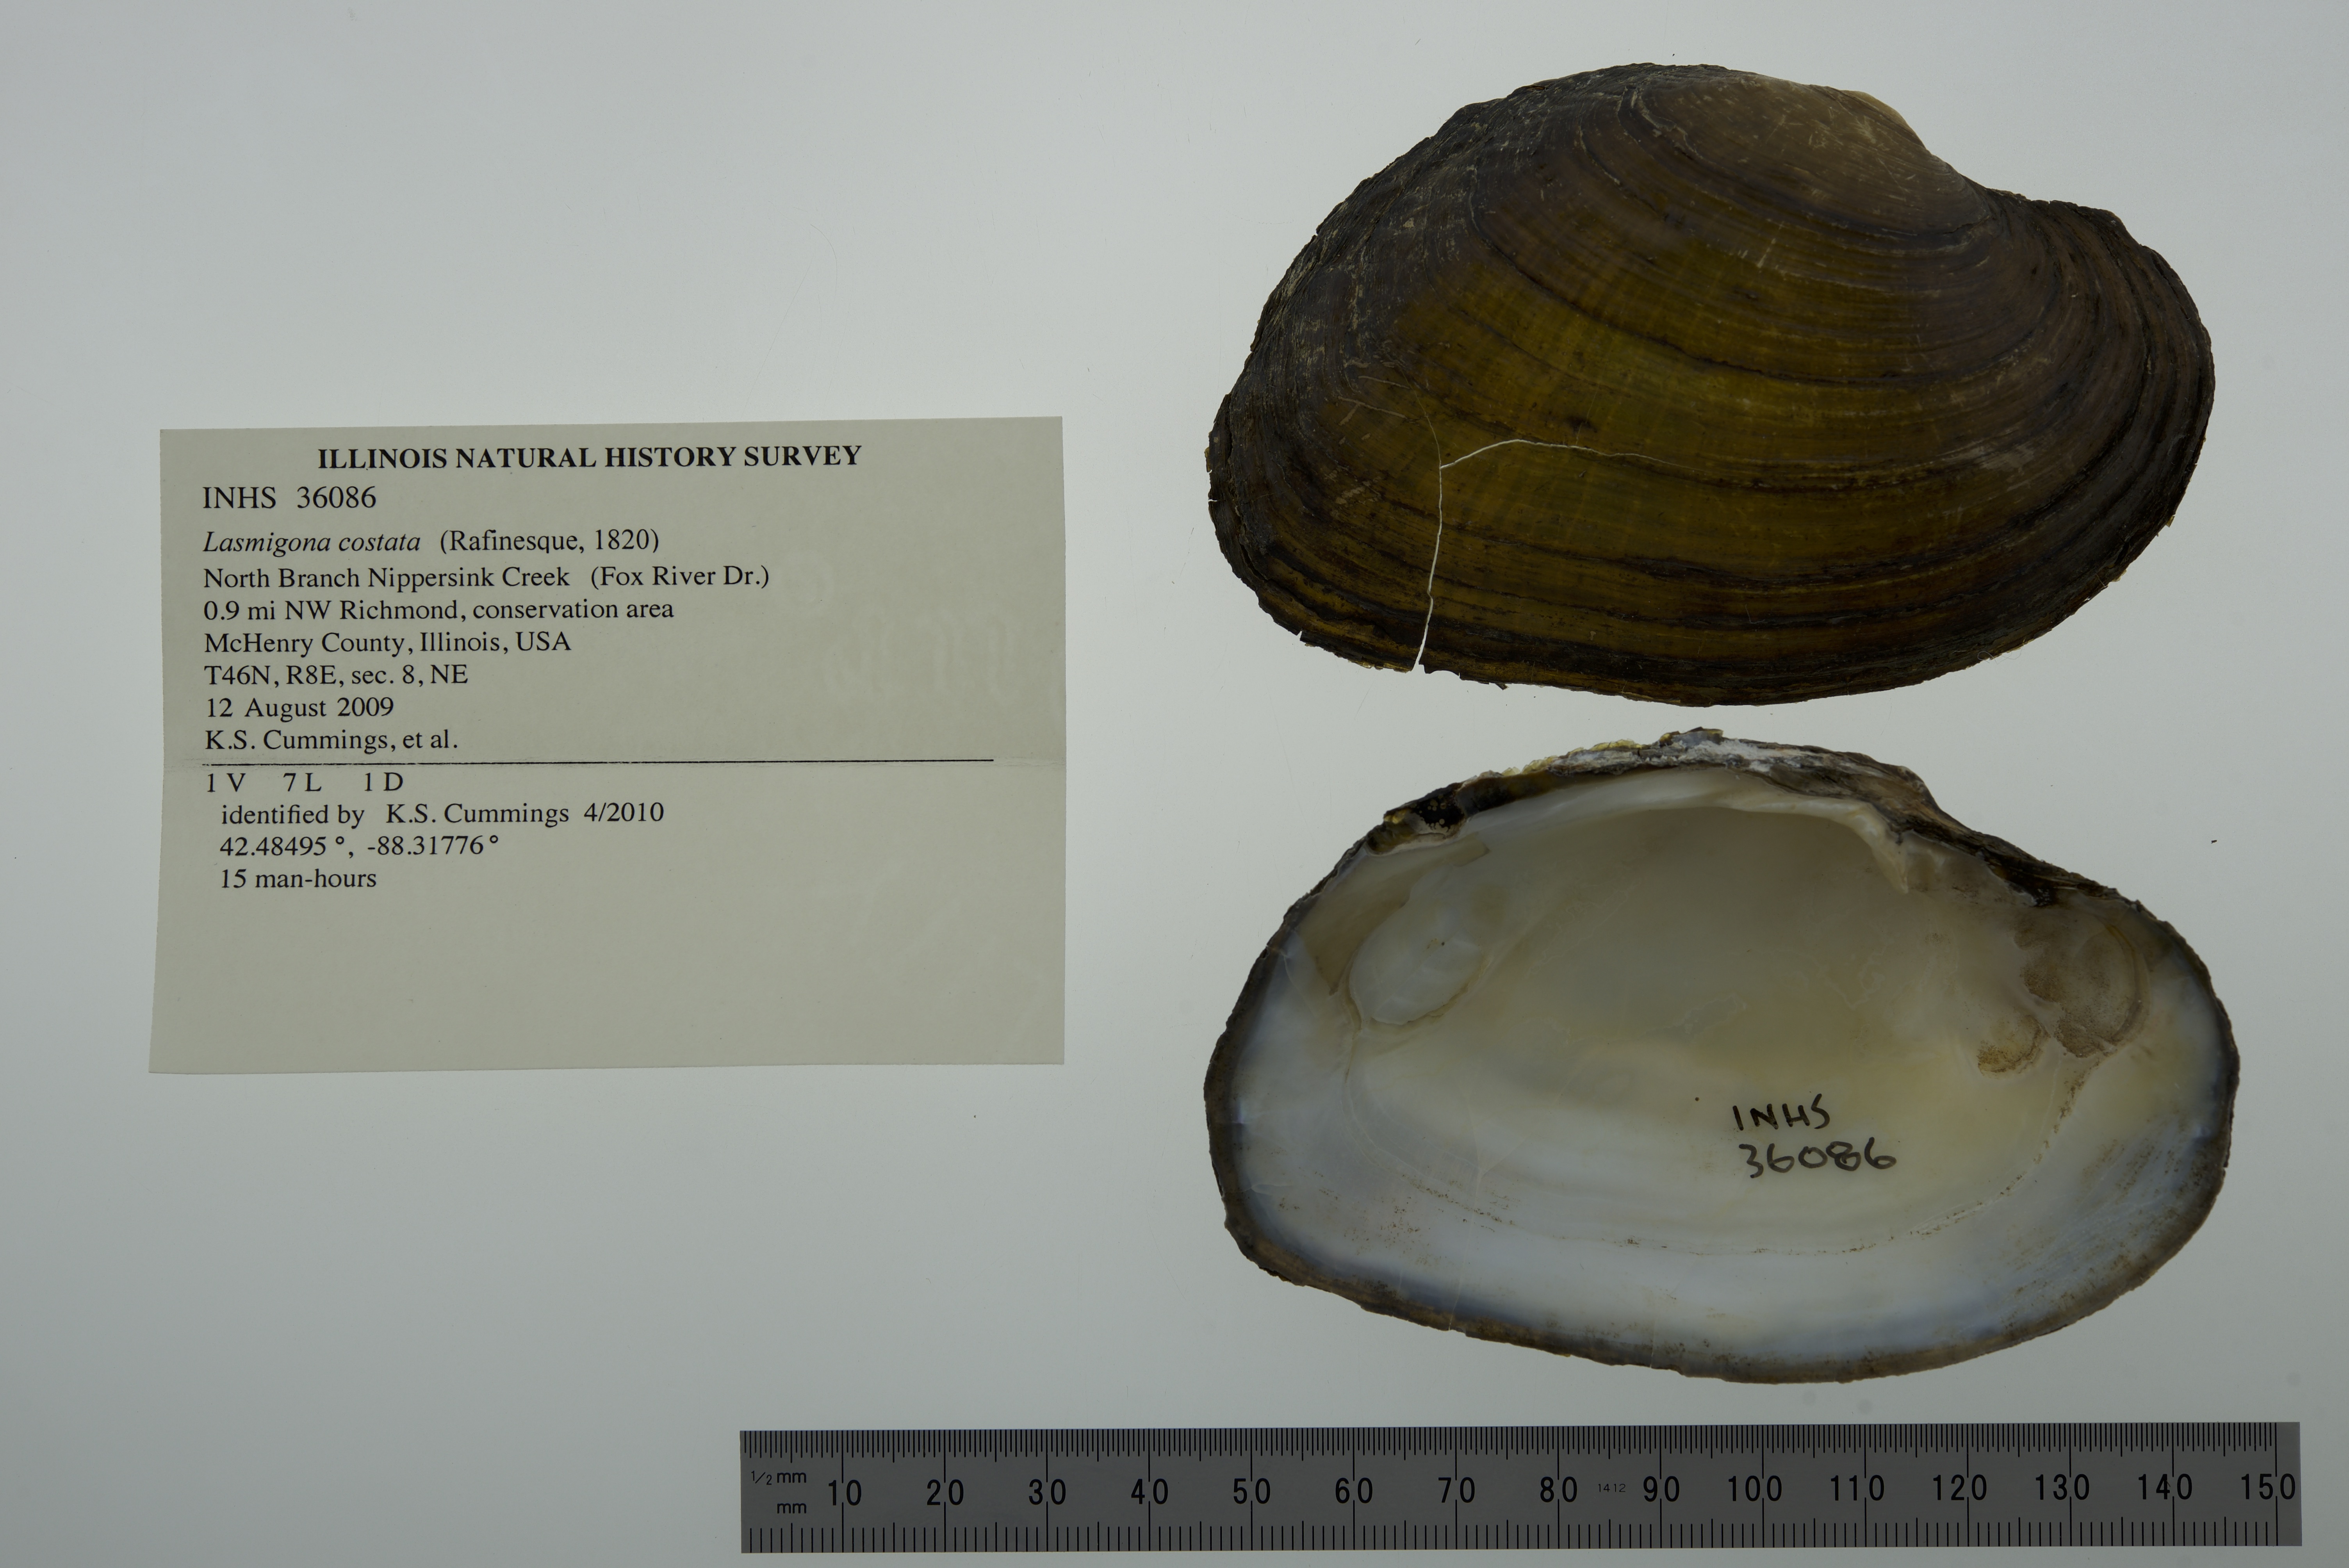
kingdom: Animalia
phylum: Mollusca
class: Bivalvia
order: Unionida
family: Unionidae
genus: Lasmigona
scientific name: Lasmigona costata
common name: Flutedshell
